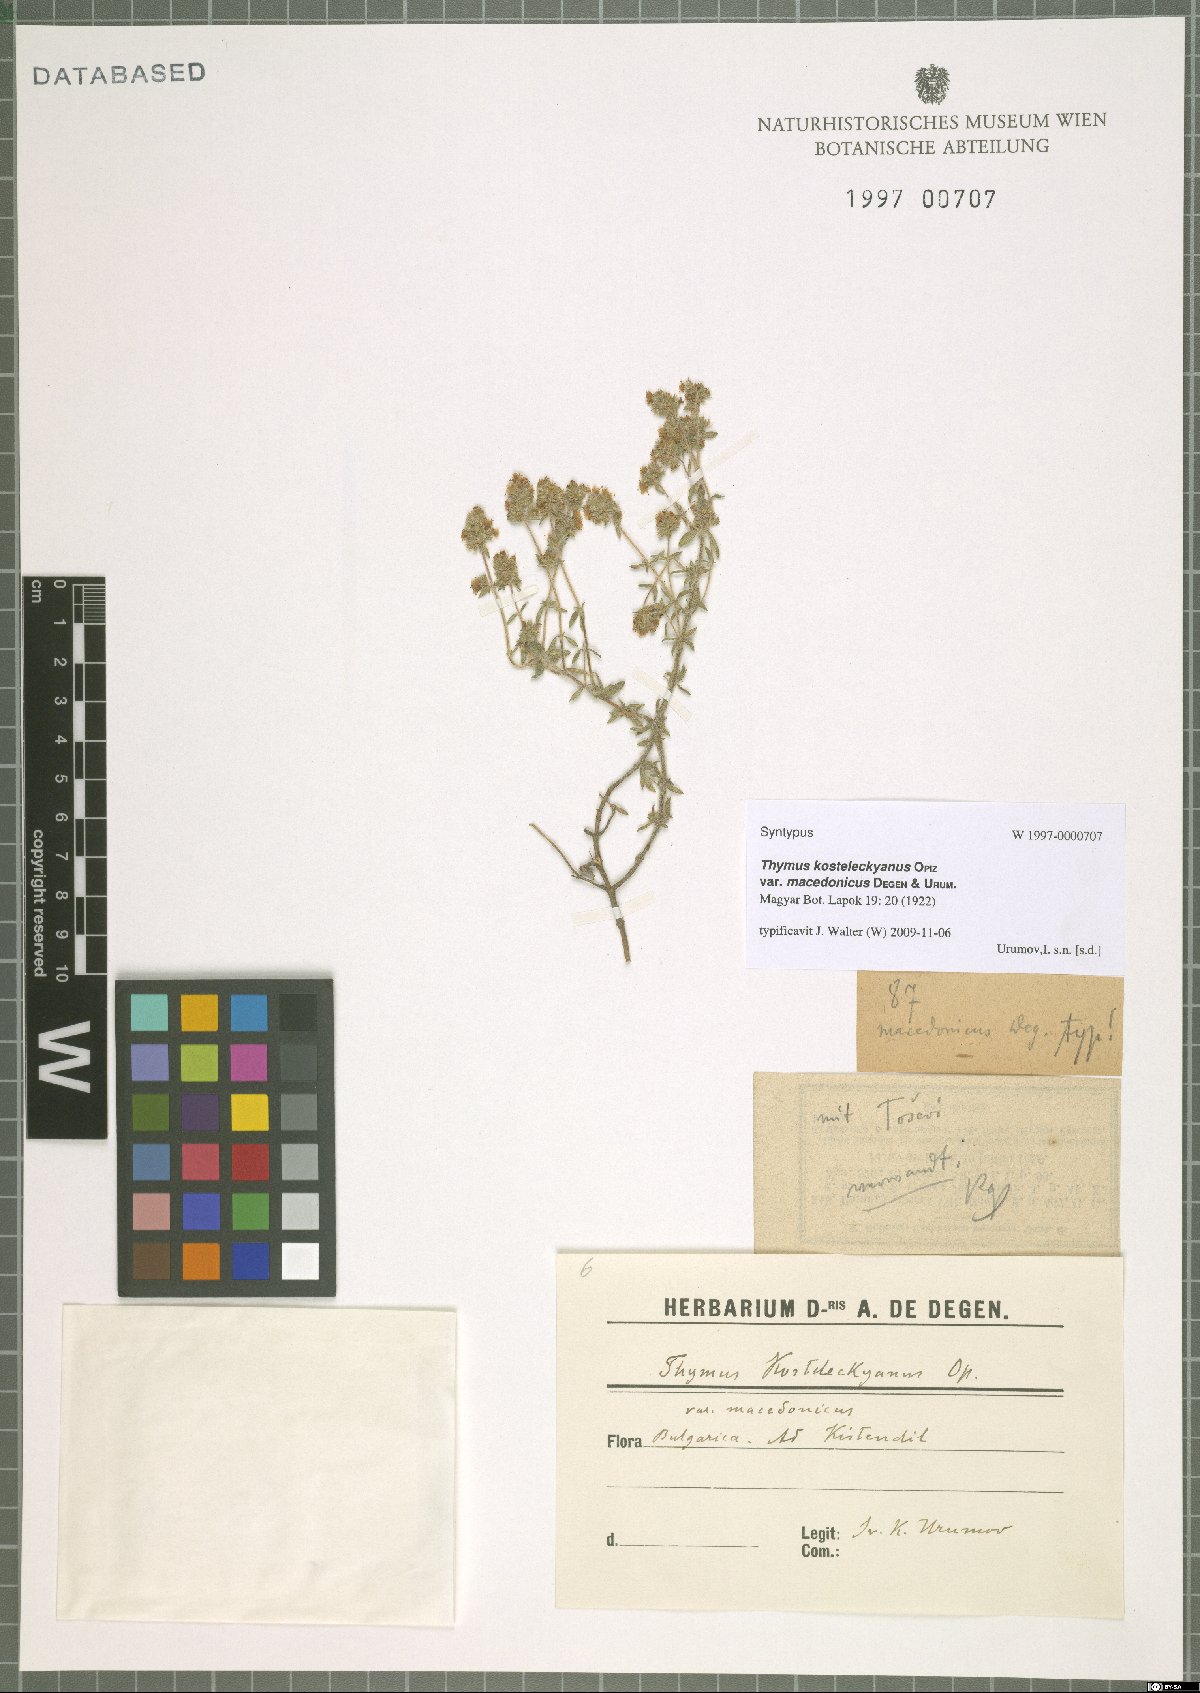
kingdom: Plantae
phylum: Tracheophyta
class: Magnoliopsida
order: Lamiales
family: Lamiaceae
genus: Thymus
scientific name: Thymus sibthorpii
